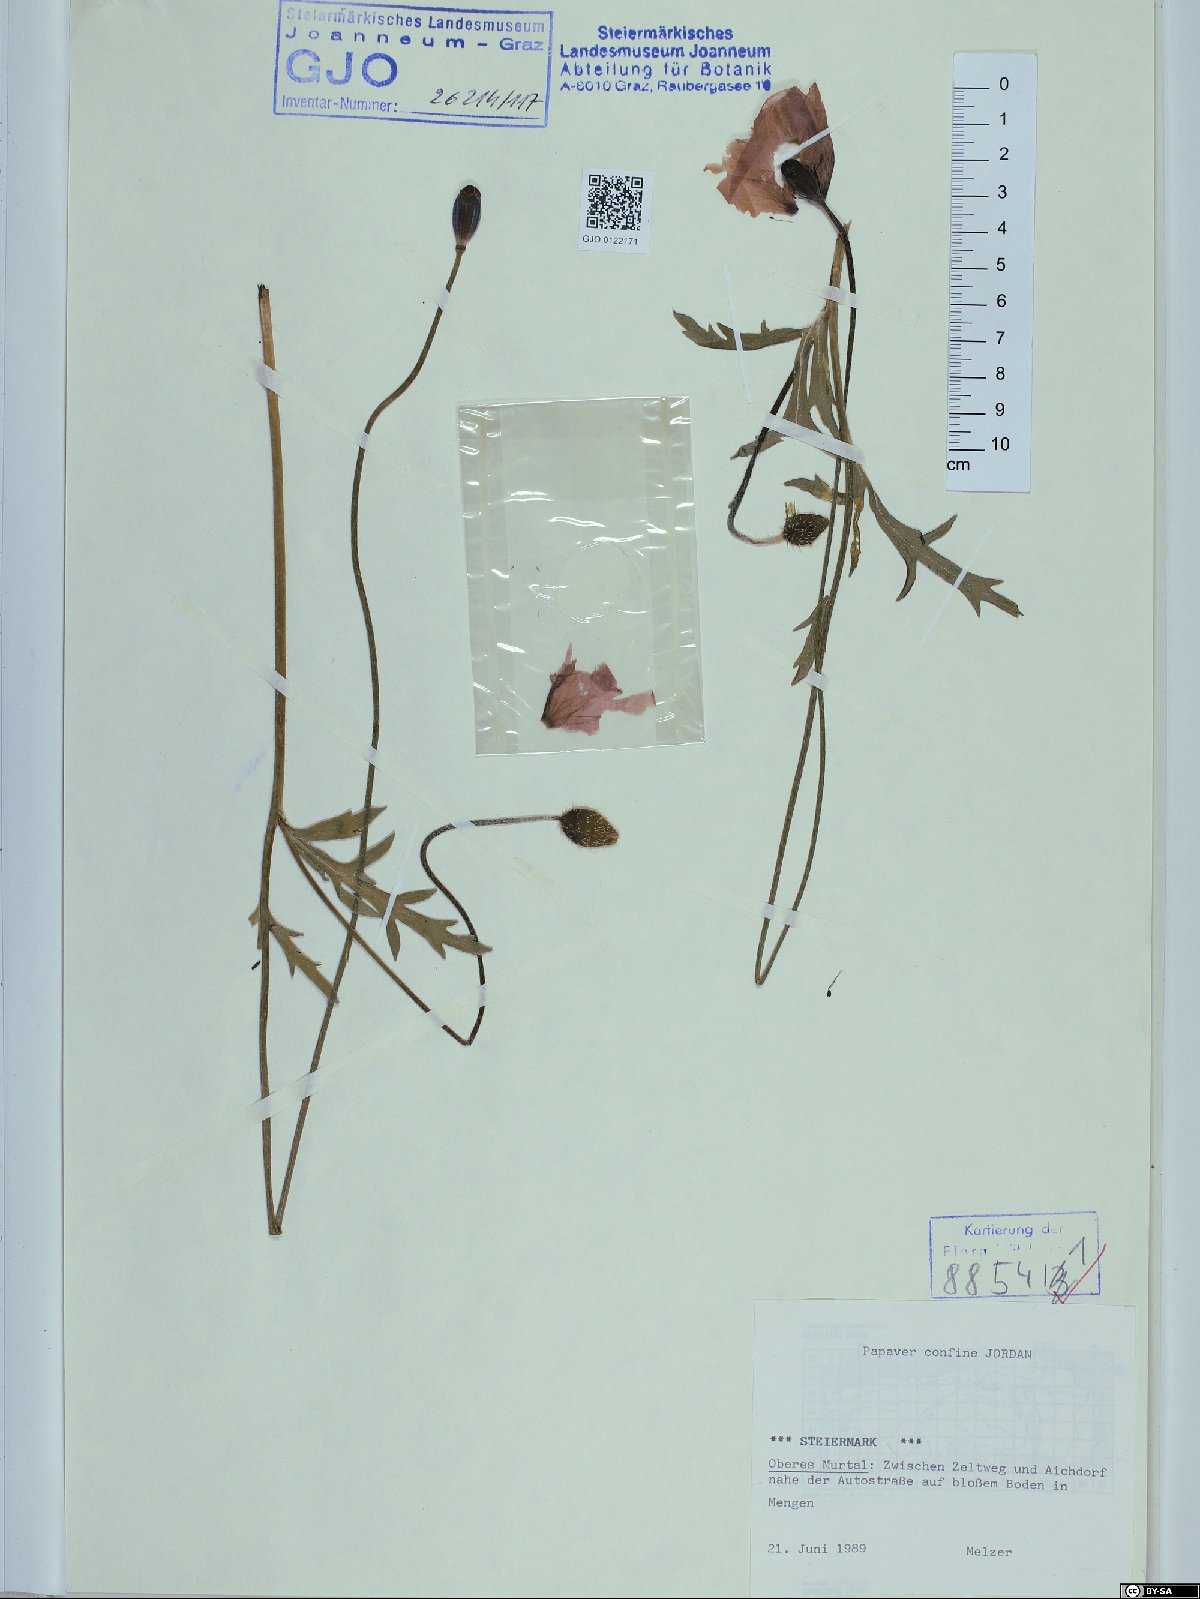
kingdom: Plantae
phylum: Tracheophyta
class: Magnoliopsida
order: Ranunculales
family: Papaveraceae
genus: Papaver
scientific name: Papaver confine
